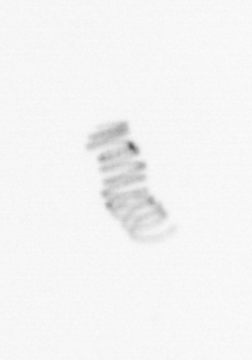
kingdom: Chromista
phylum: Ochrophyta
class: Bacillariophyceae
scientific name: Bacillariophyceae
